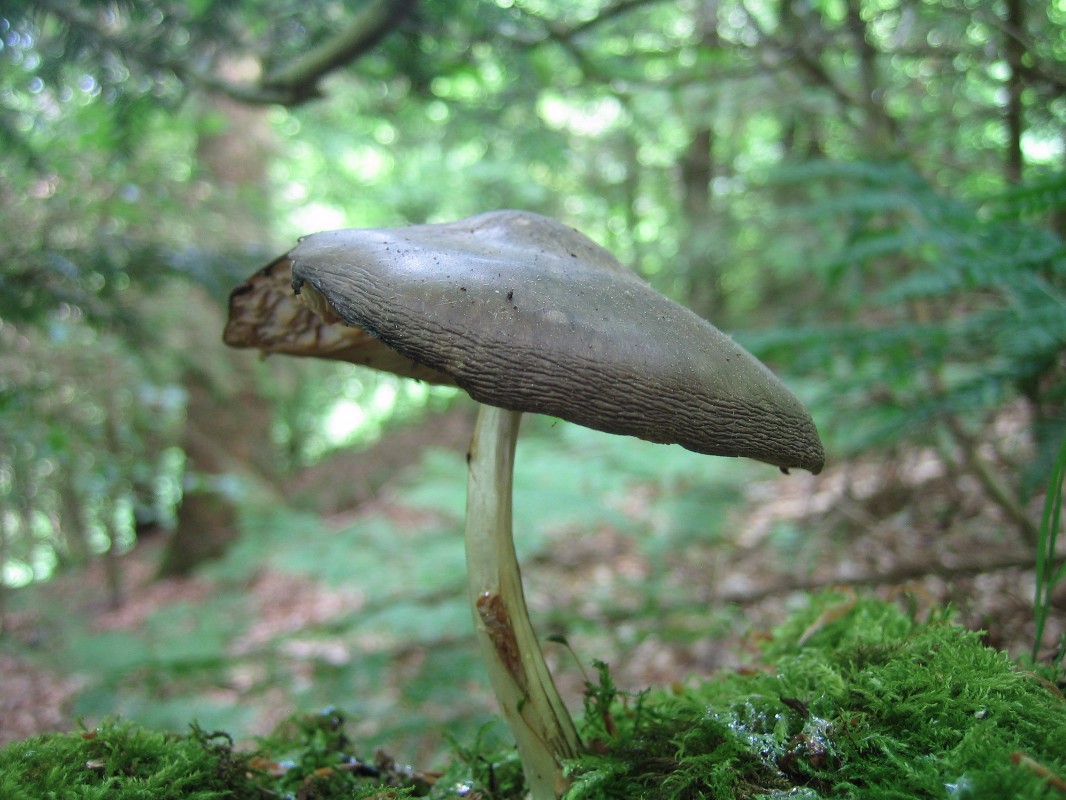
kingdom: Fungi
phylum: Basidiomycota
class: Agaricomycetes
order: Agaricales
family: Pluteaceae
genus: Pluteus
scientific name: Pluteus cervinus
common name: sodfarvet skærmhat
